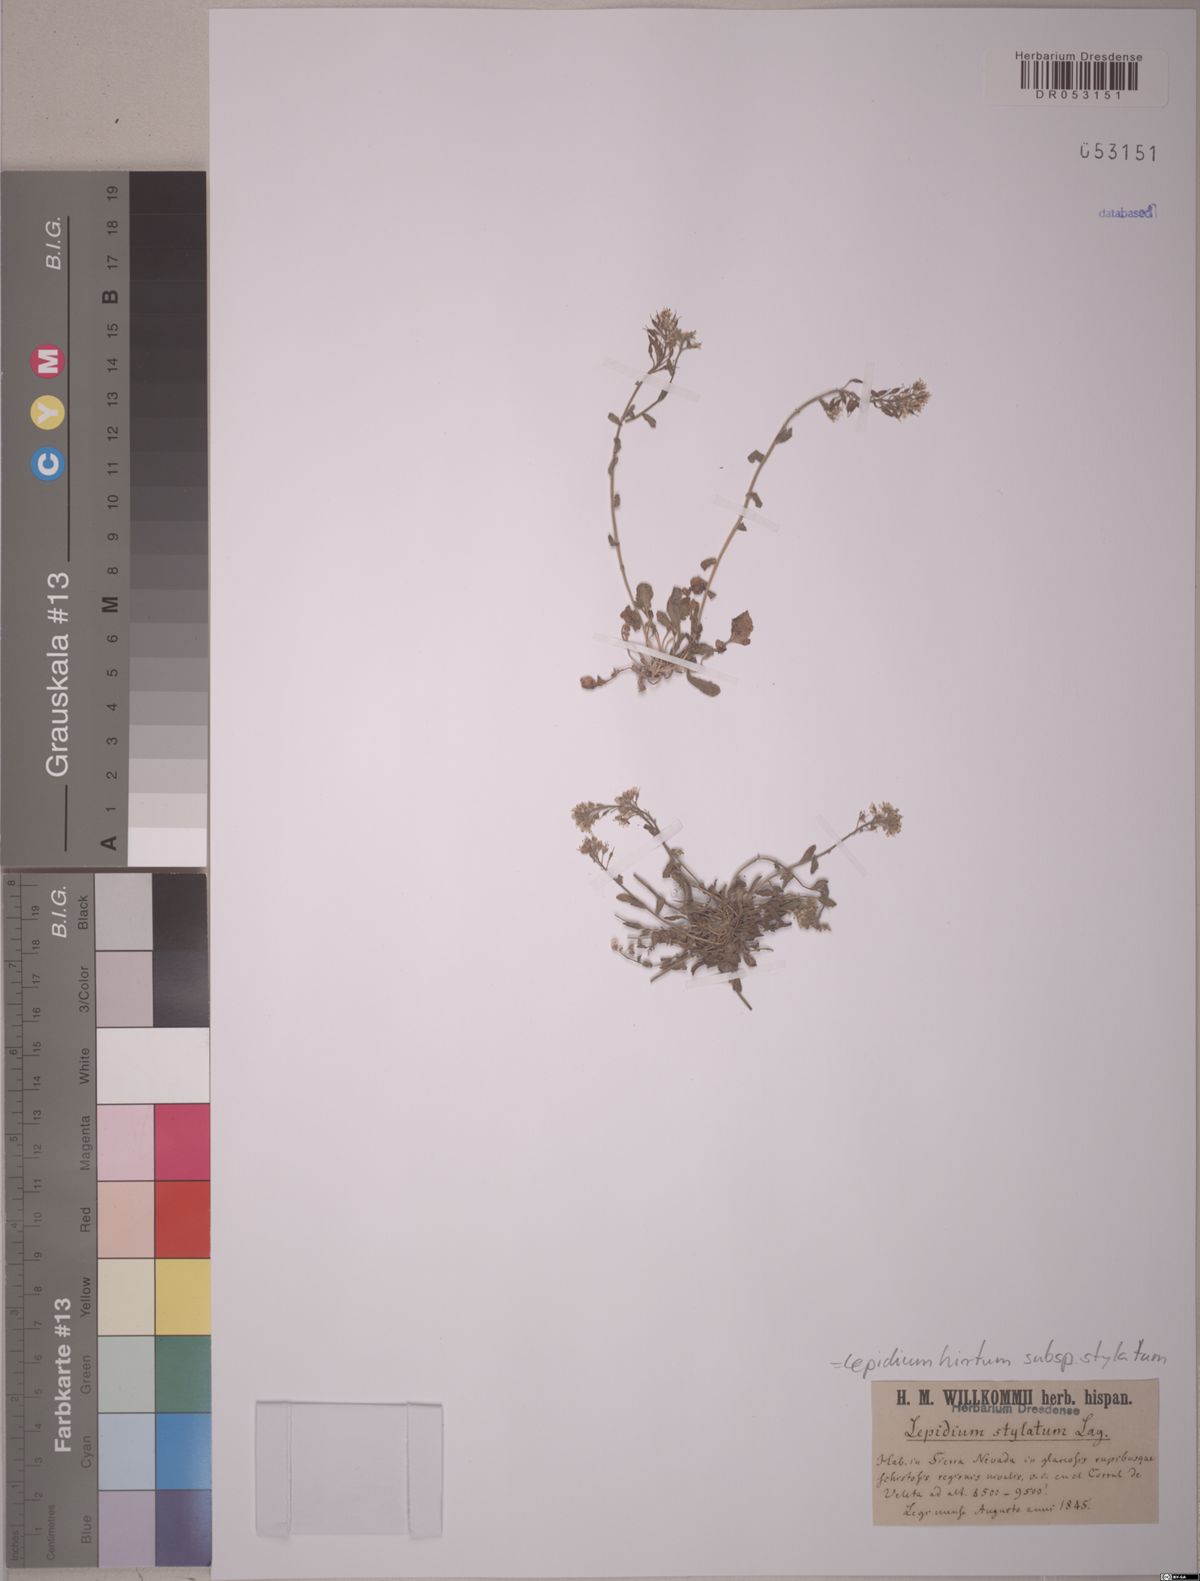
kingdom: Plantae
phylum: Tracheophyta
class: Magnoliopsida
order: Brassicales
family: Brassicaceae
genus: Lepidium
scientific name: Lepidium hirtum
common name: Mediterranean pepperweed
